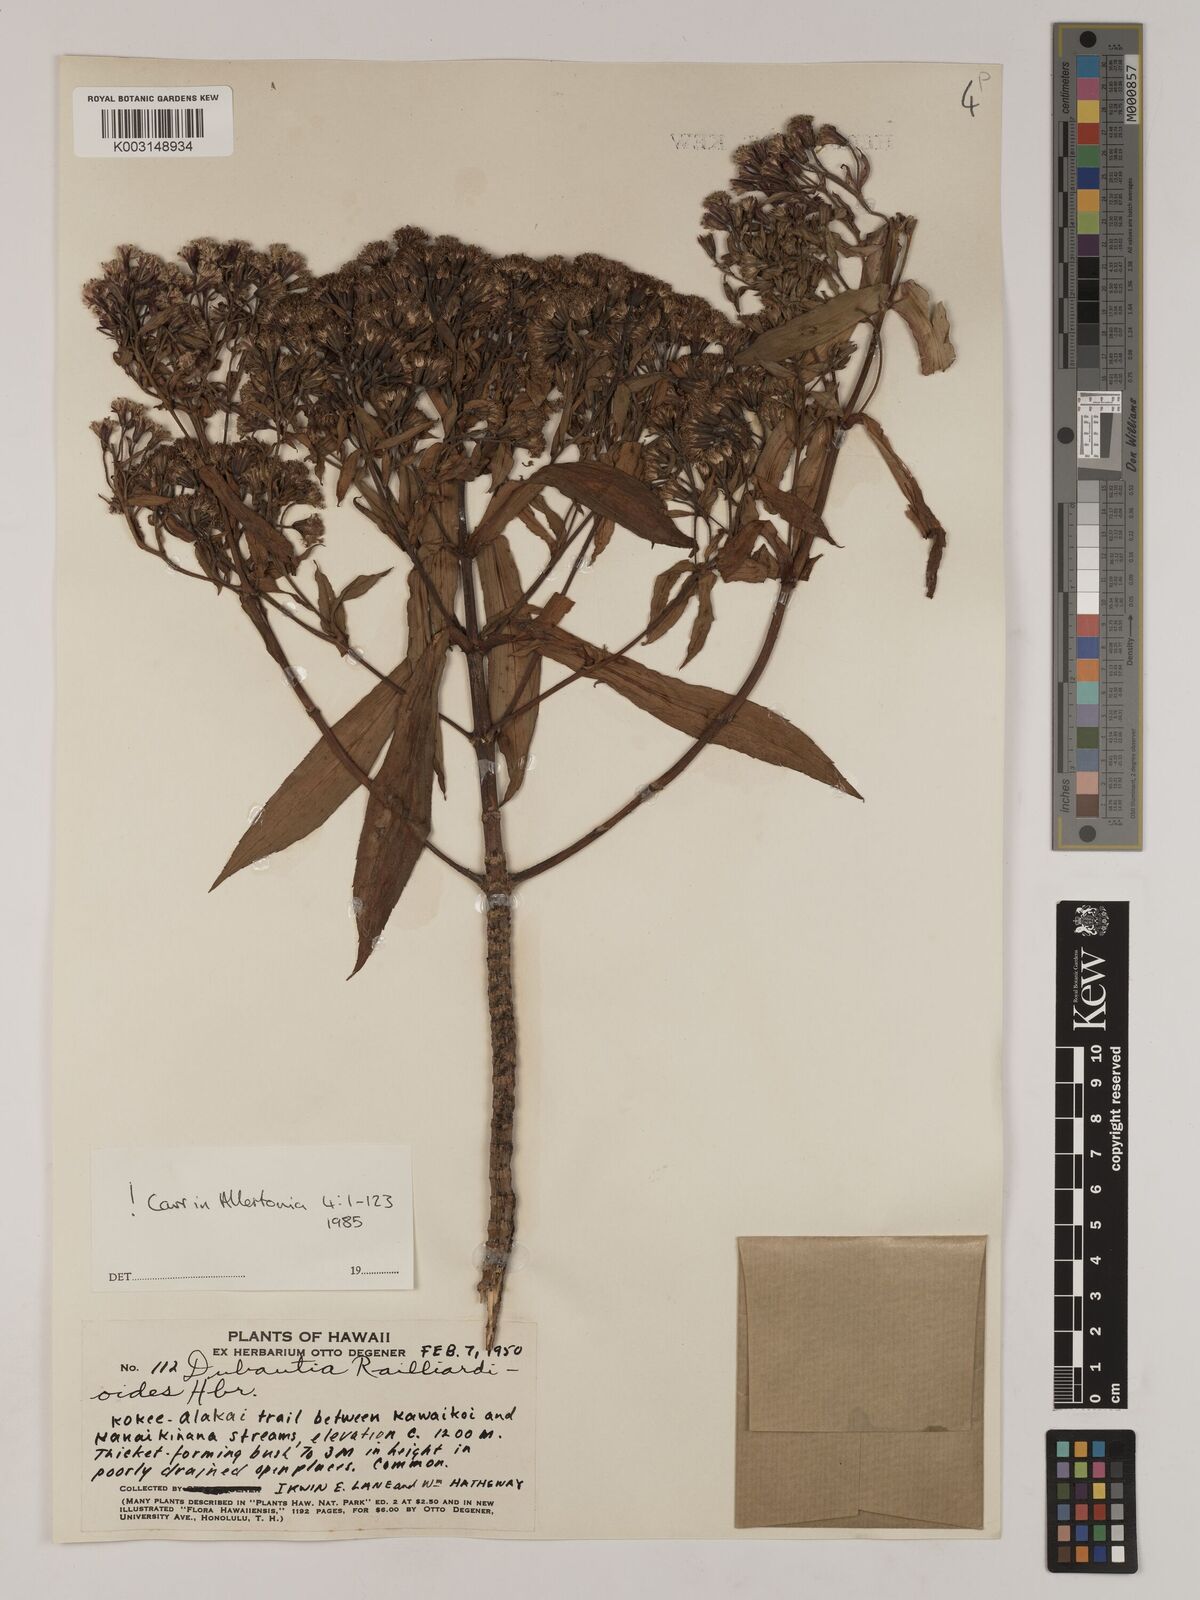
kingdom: Plantae
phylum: Tracheophyta
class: Magnoliopsida
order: Asterales
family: Asteraceae
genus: Dubautia
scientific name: Dubautia raillardioides
